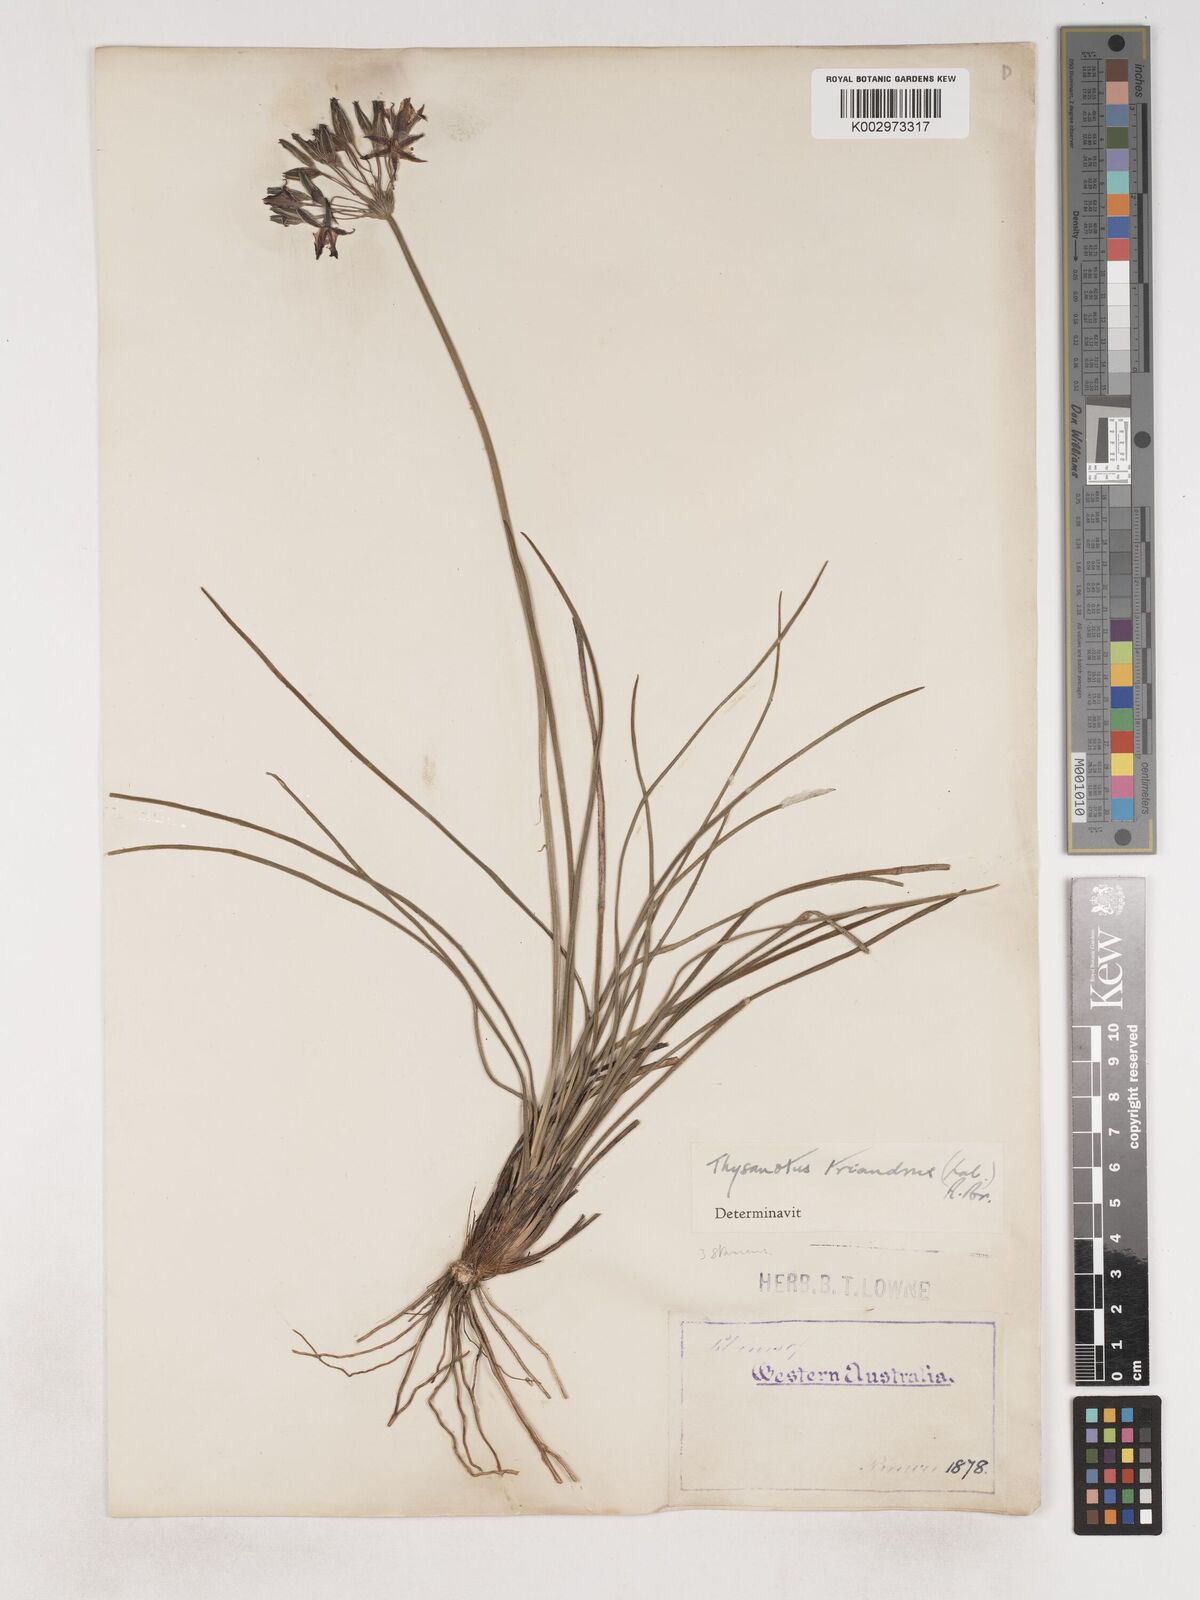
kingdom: Plantae
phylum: Tracheophyta
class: Liliopsida
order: Asparagales
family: Asparagaceae
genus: Thysanotus
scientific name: Thysanotus triandrus
